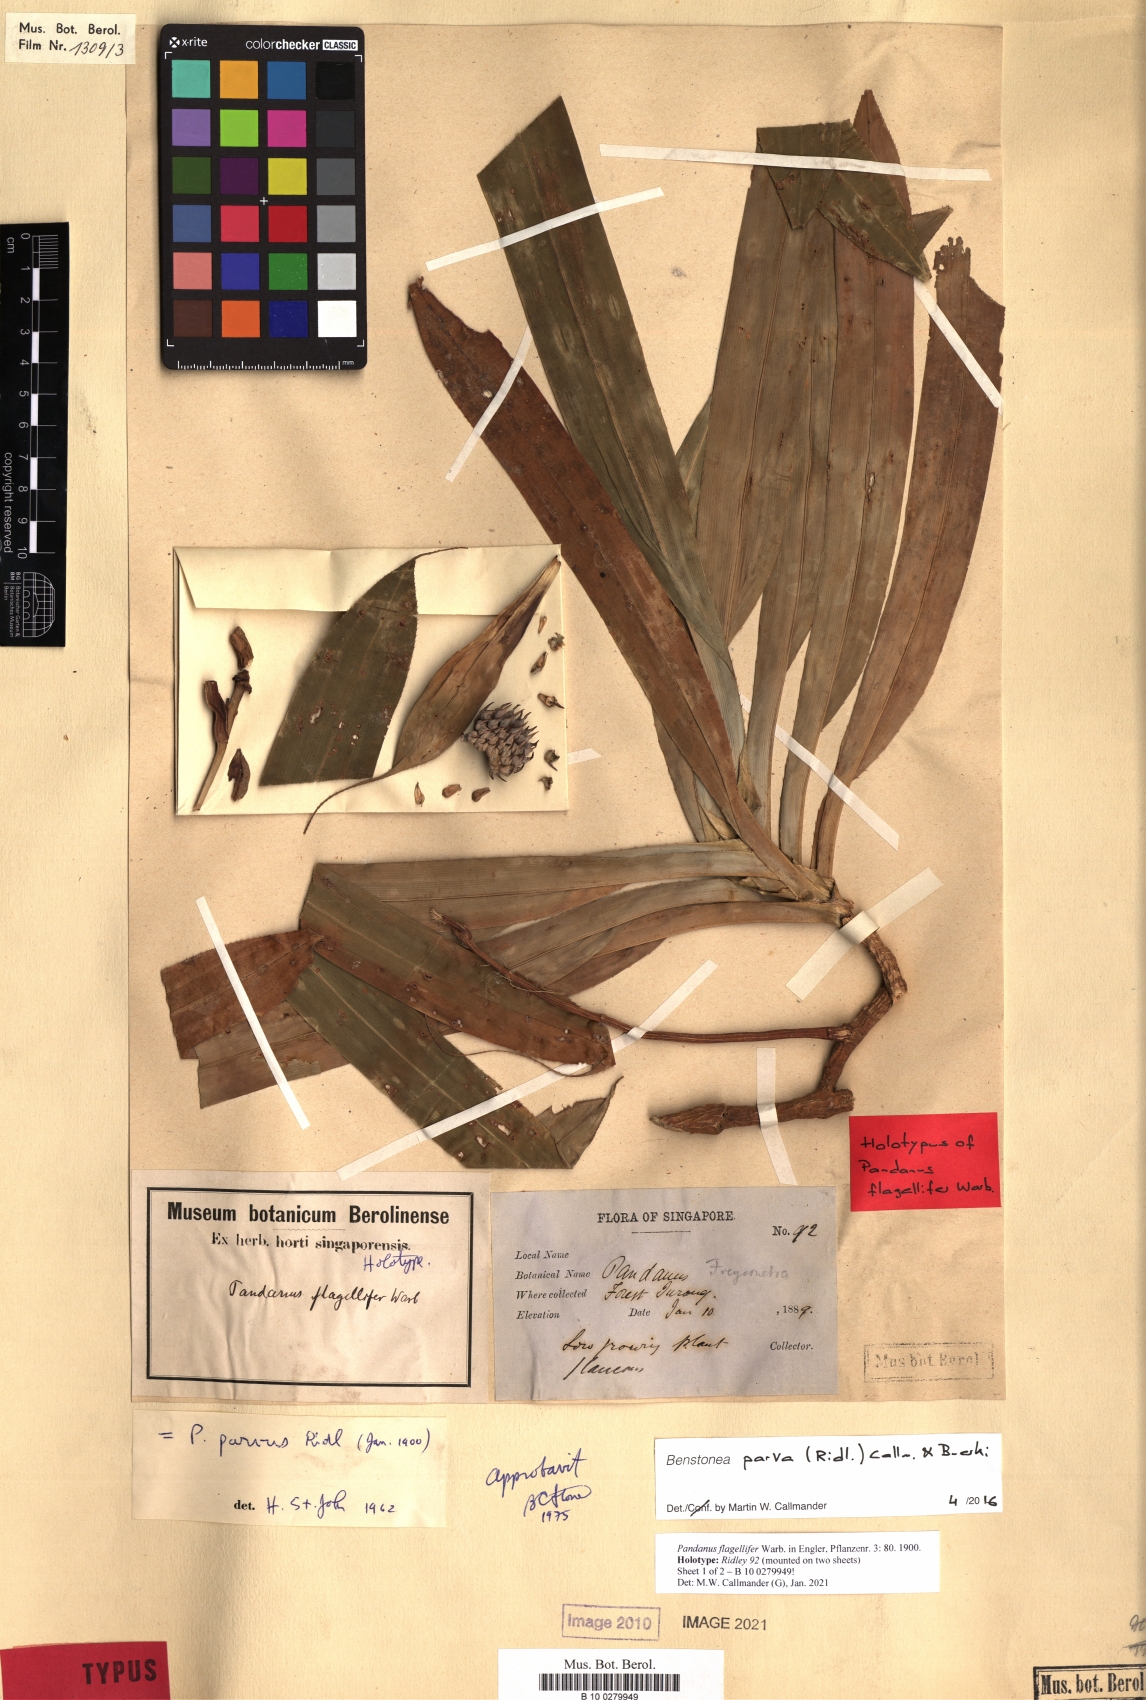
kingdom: Plantae
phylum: Tracheophyta
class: Liliopsida
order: Pandanales
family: Pandanaceae
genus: Benstonea
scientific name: Benstonea parva
